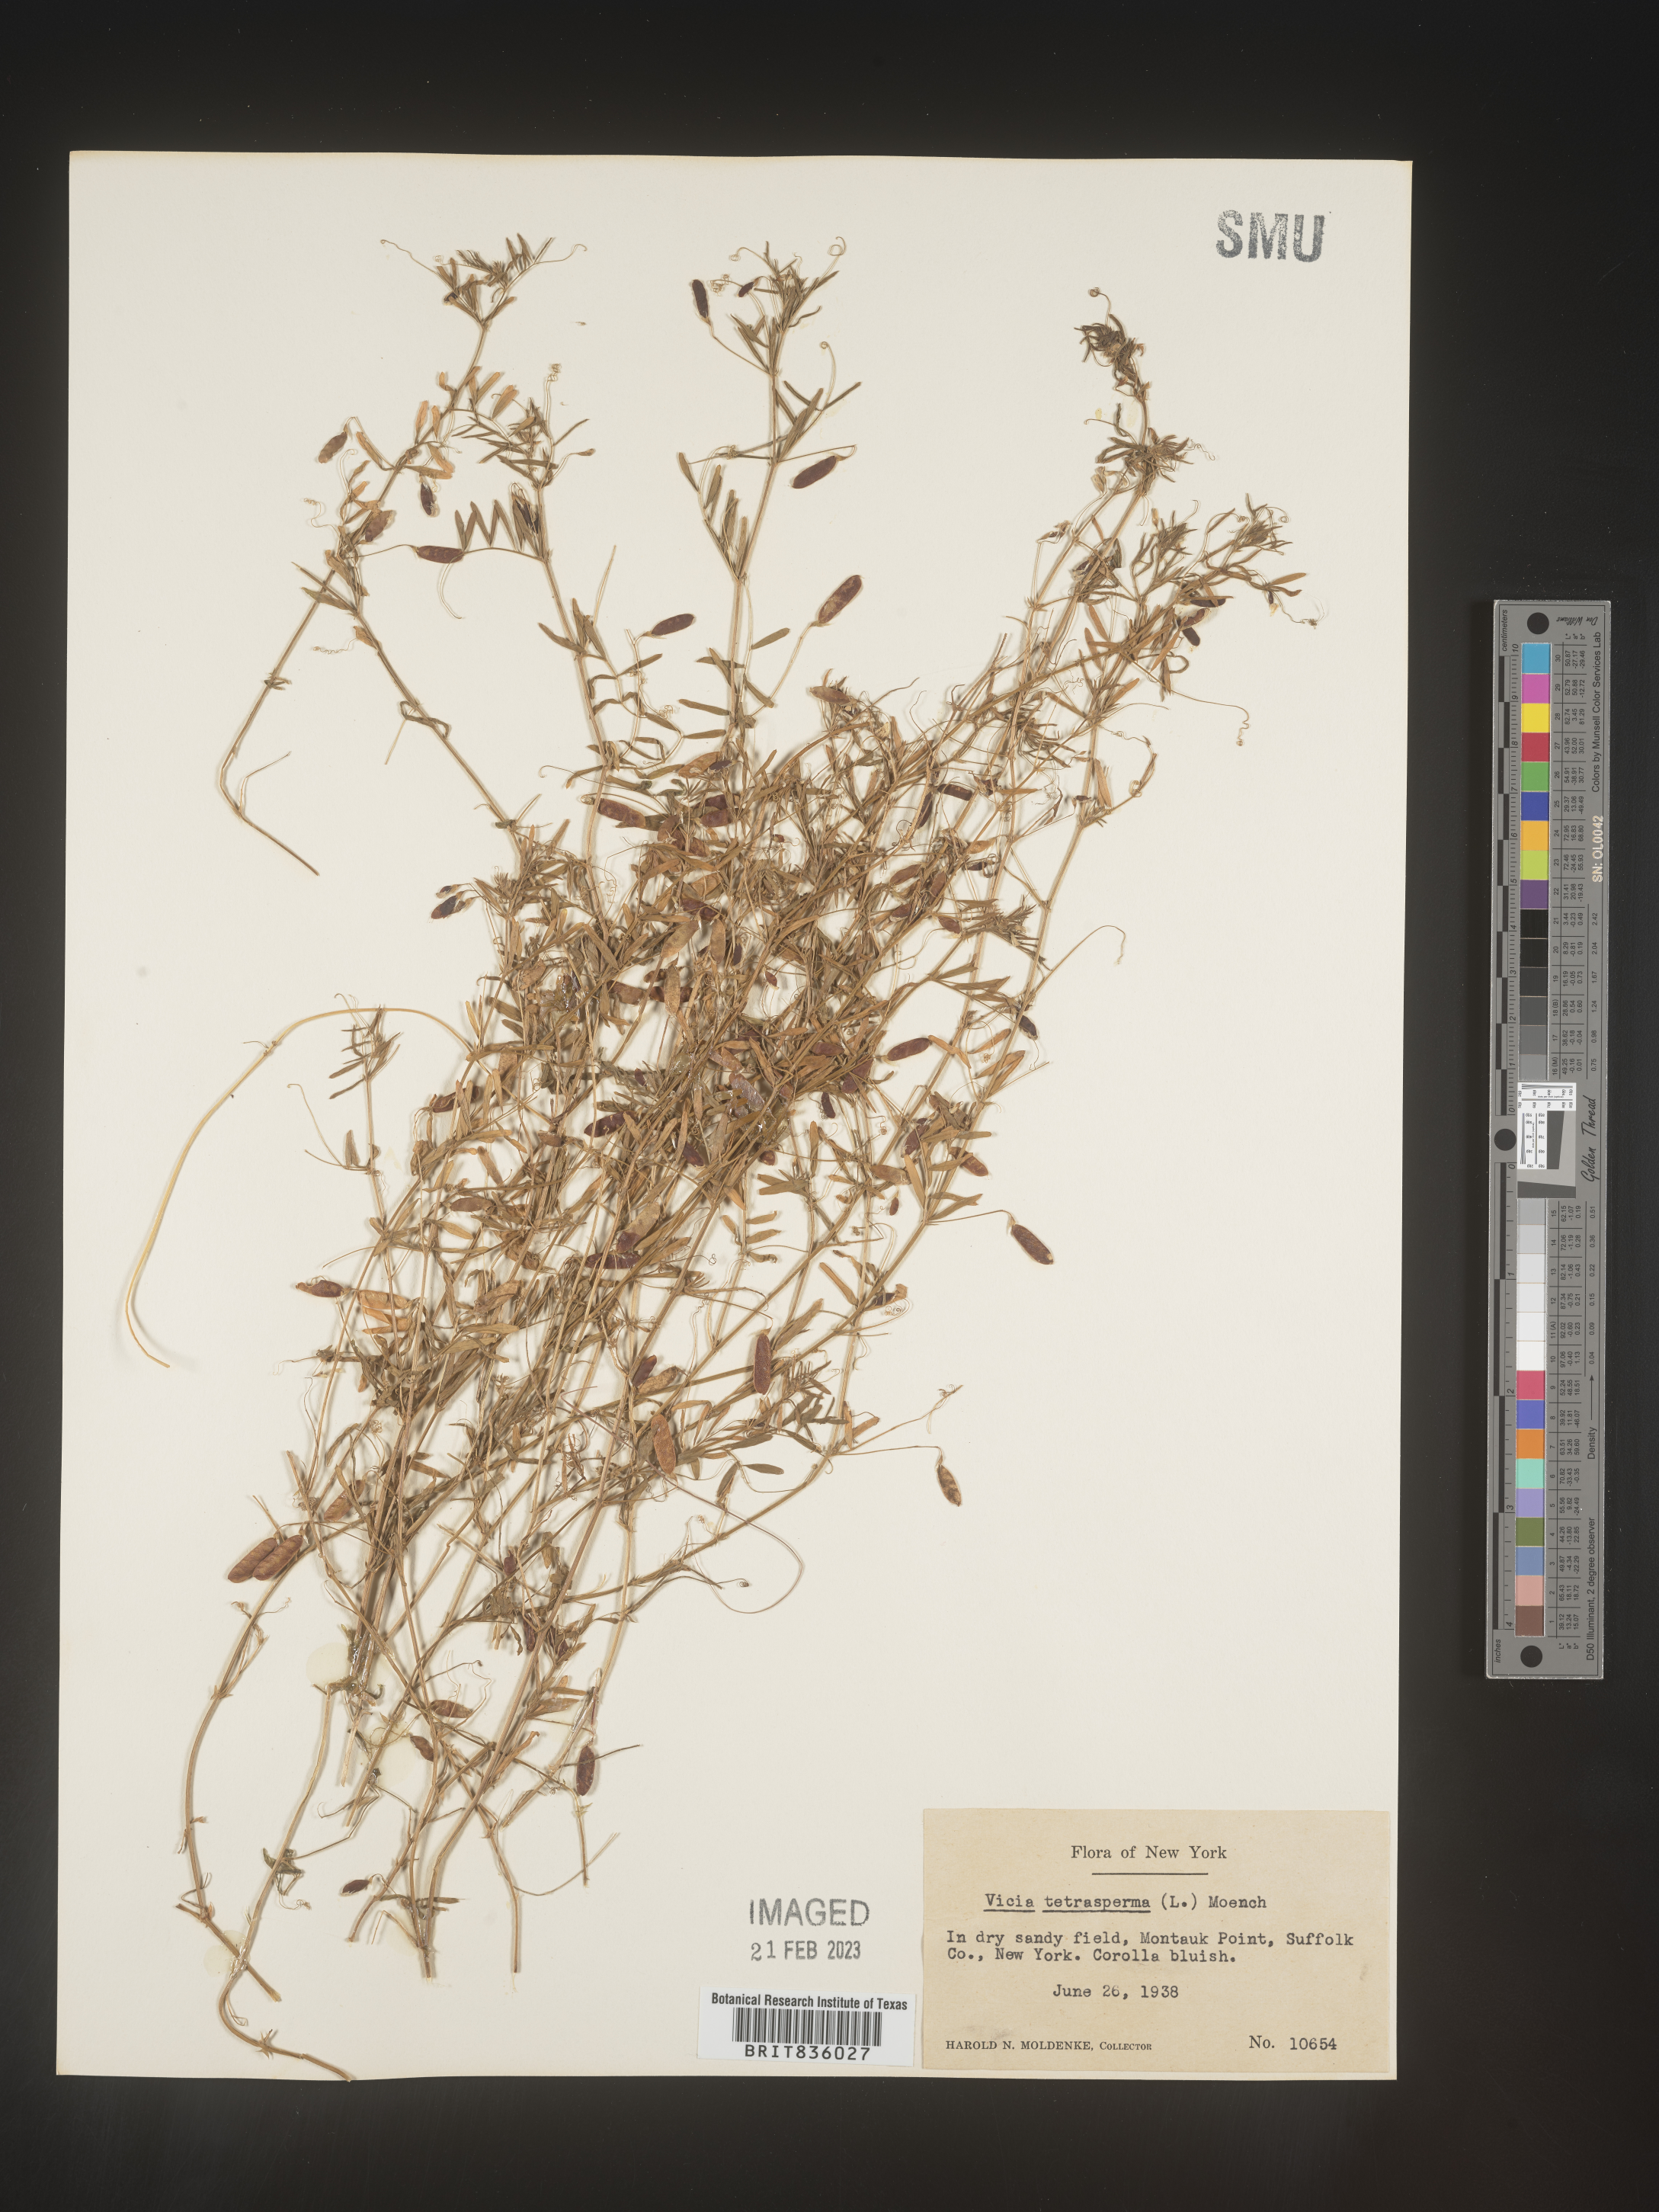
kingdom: Plantae
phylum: Tracheophyta
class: Magnoliopsida
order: Fabales
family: Fabaceae
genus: Vicia
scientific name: Vicia tetrasperma
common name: Smooth tare
